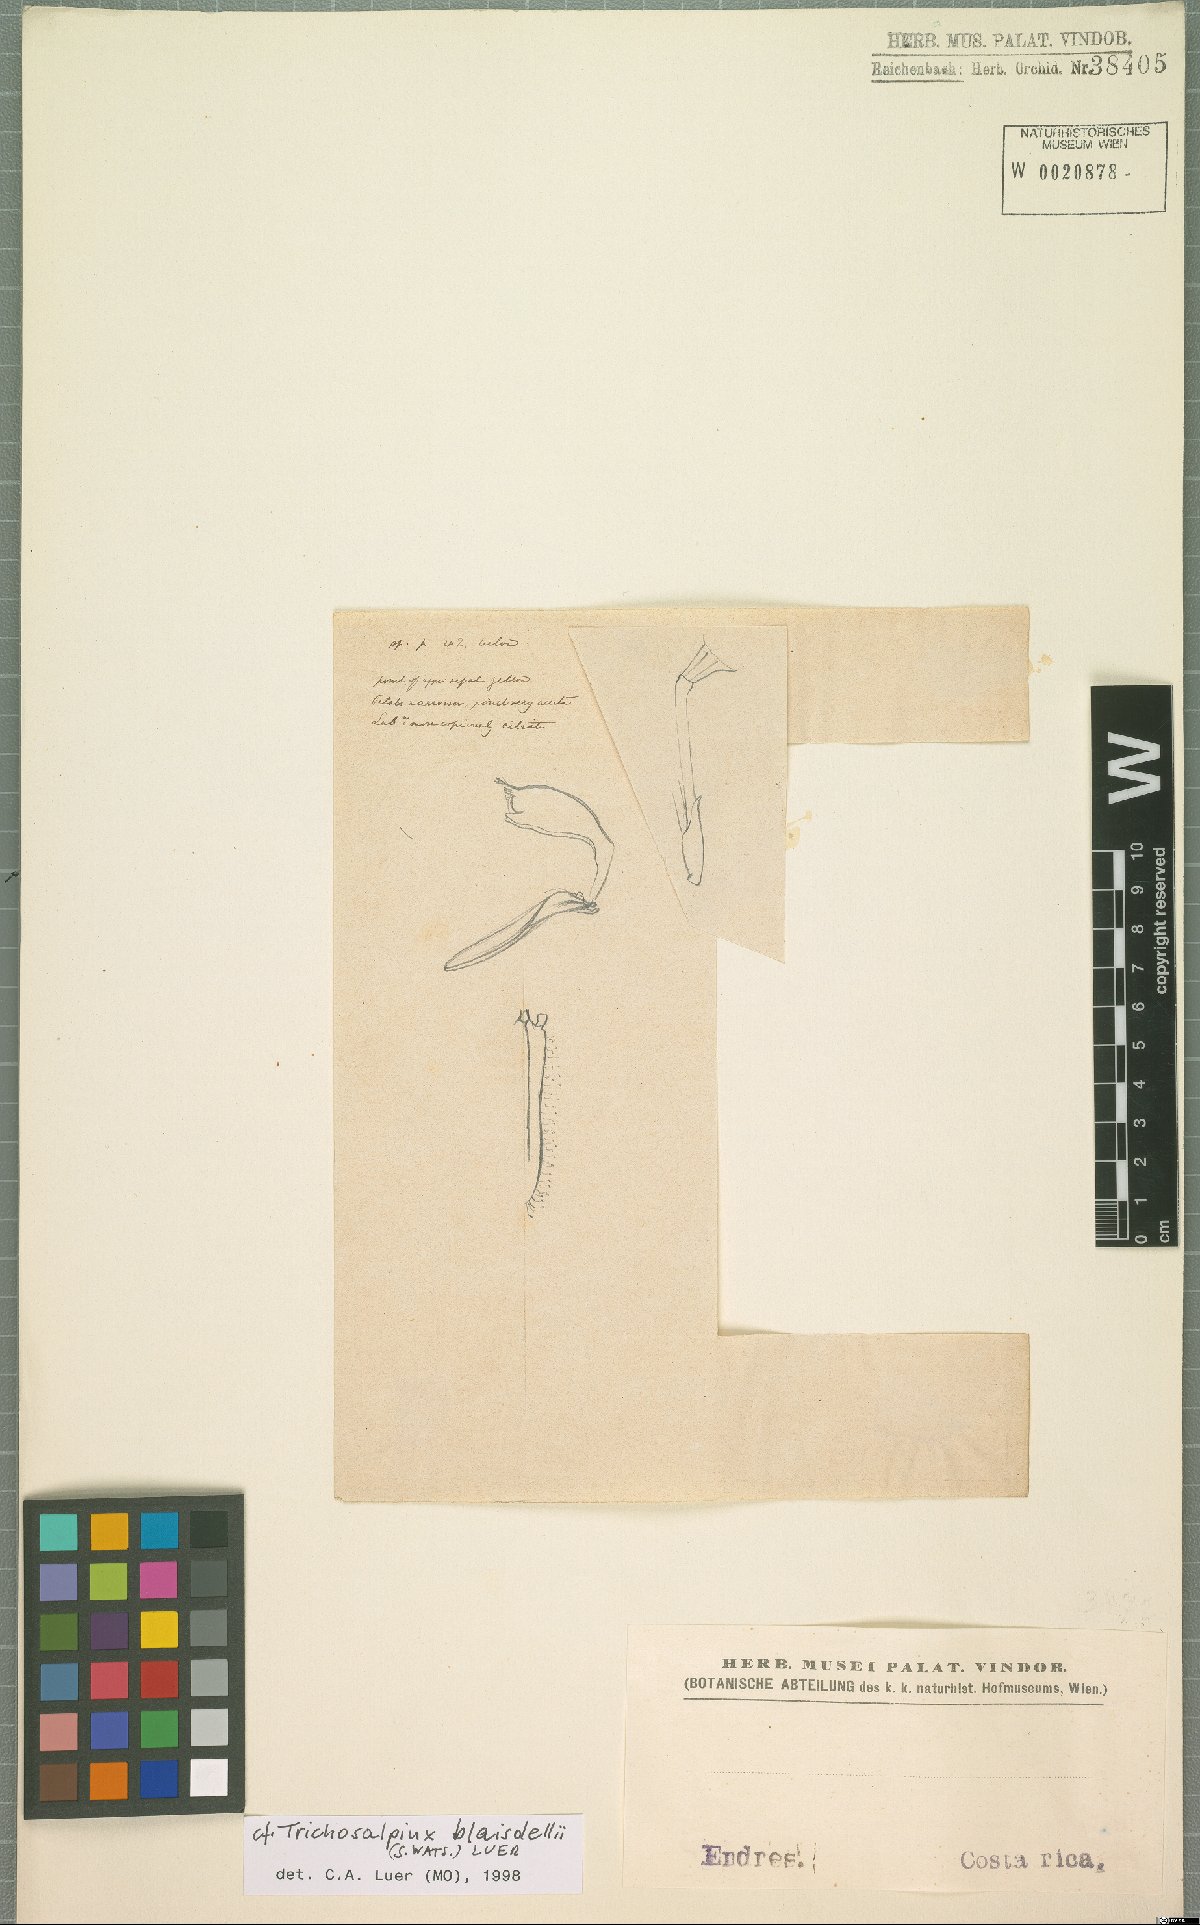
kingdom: Plantae
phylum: Tracheophyta
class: Liliopsida
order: Asparagales
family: Orchidaceae
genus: Trichosalpinx
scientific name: Trichosalpinx blaisdellii
